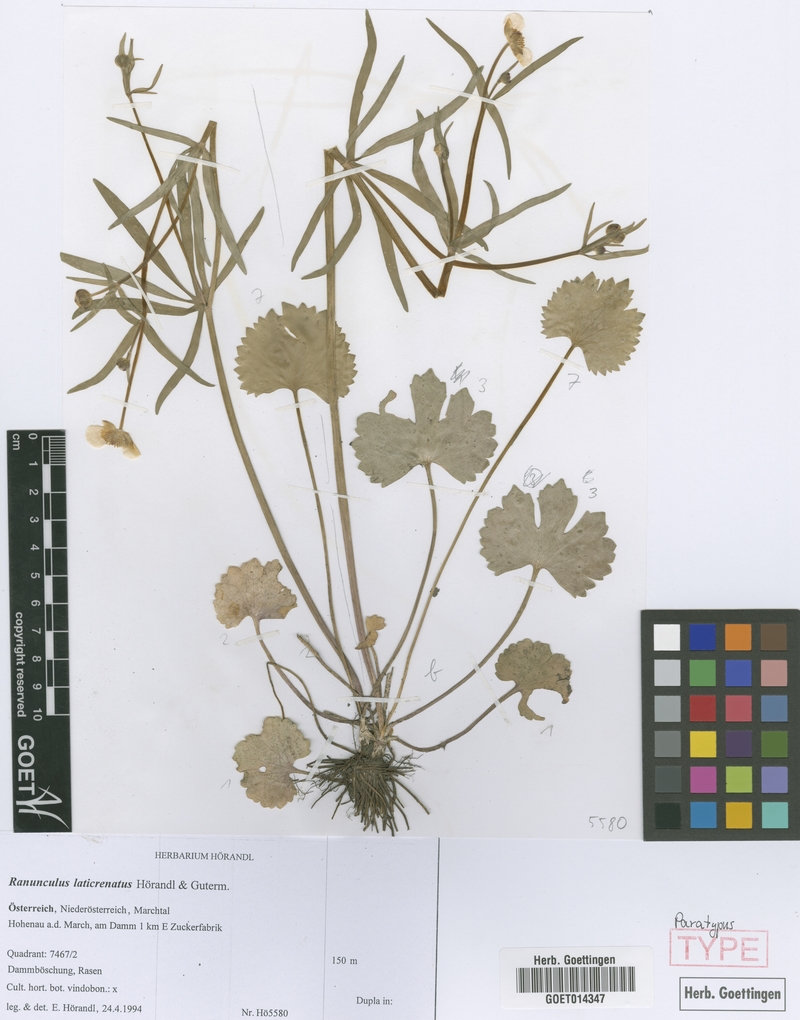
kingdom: Plantae
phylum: Tracheophyta
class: Magnoliopsida
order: Ranunculales
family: Ranunculaceae
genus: Ranunculus
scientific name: Ranunculus laticrenatus
